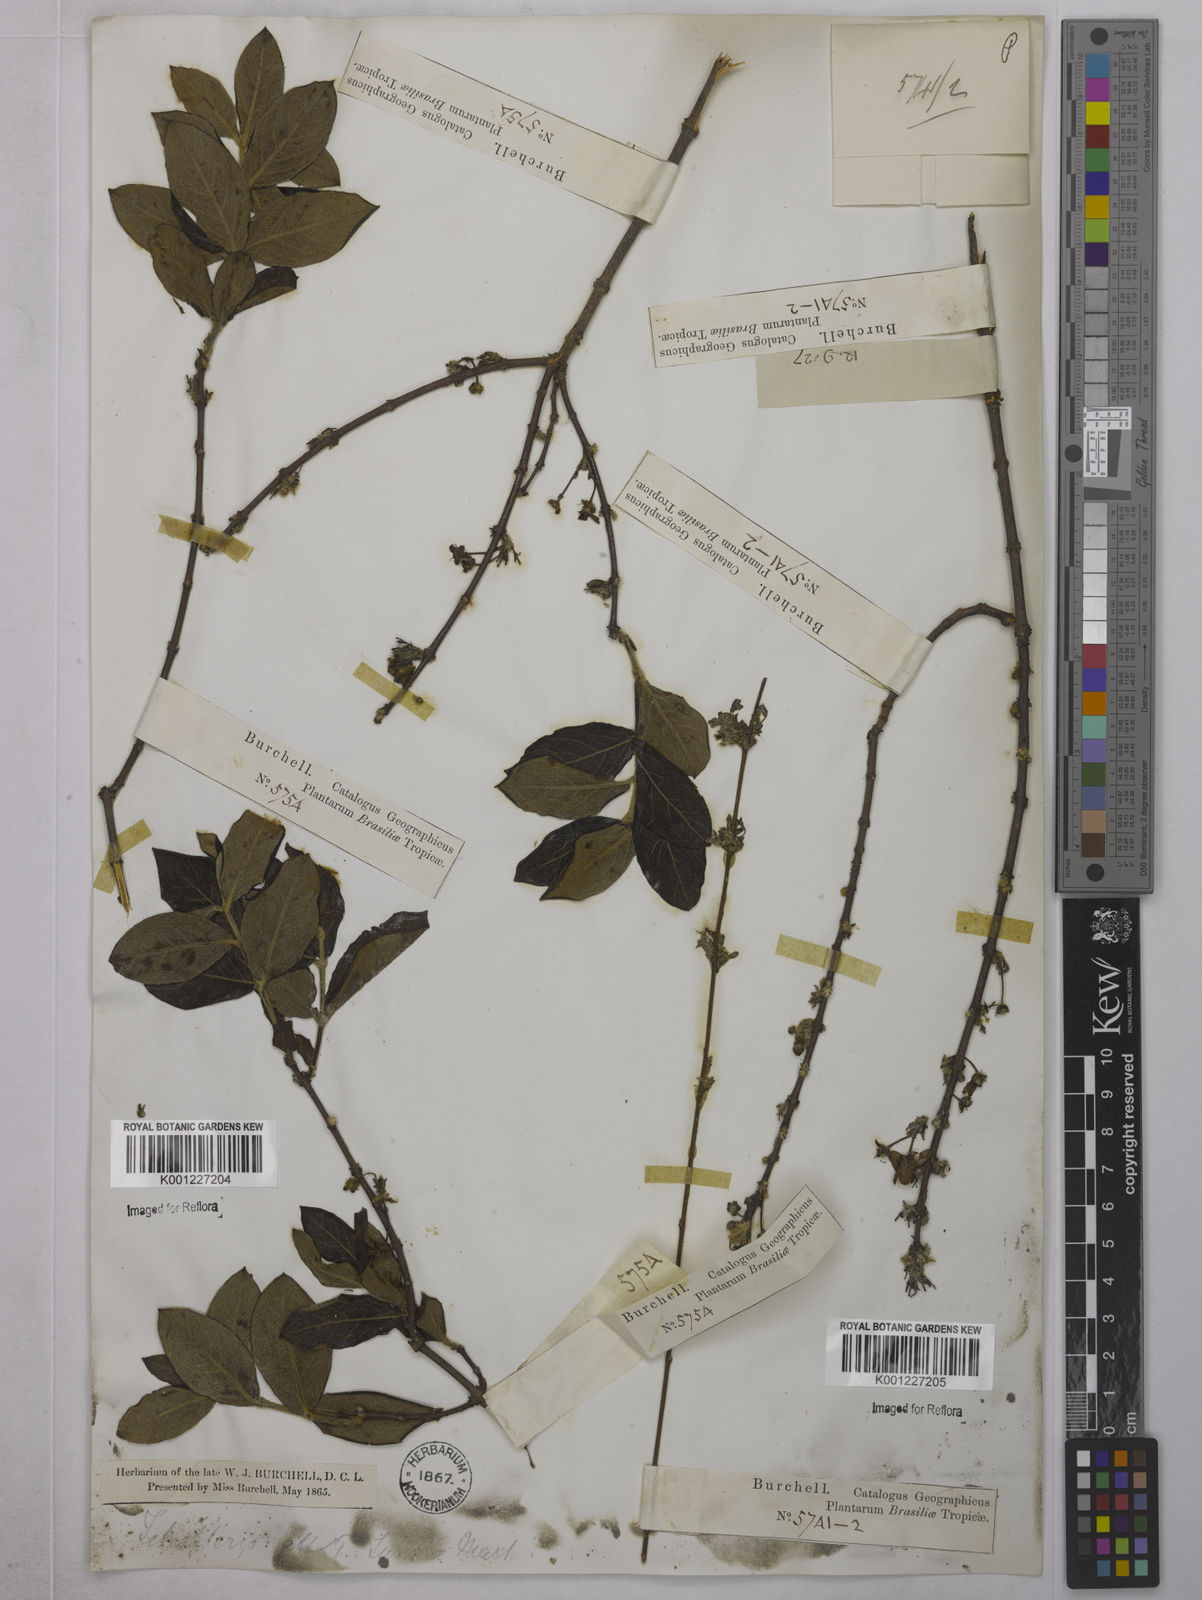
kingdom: Plantae
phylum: Tracheophyta
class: Magnoliopsida
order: Malpighiales
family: Malpighiaceae
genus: Glicophyllum
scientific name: Glicophyllum turnerae
